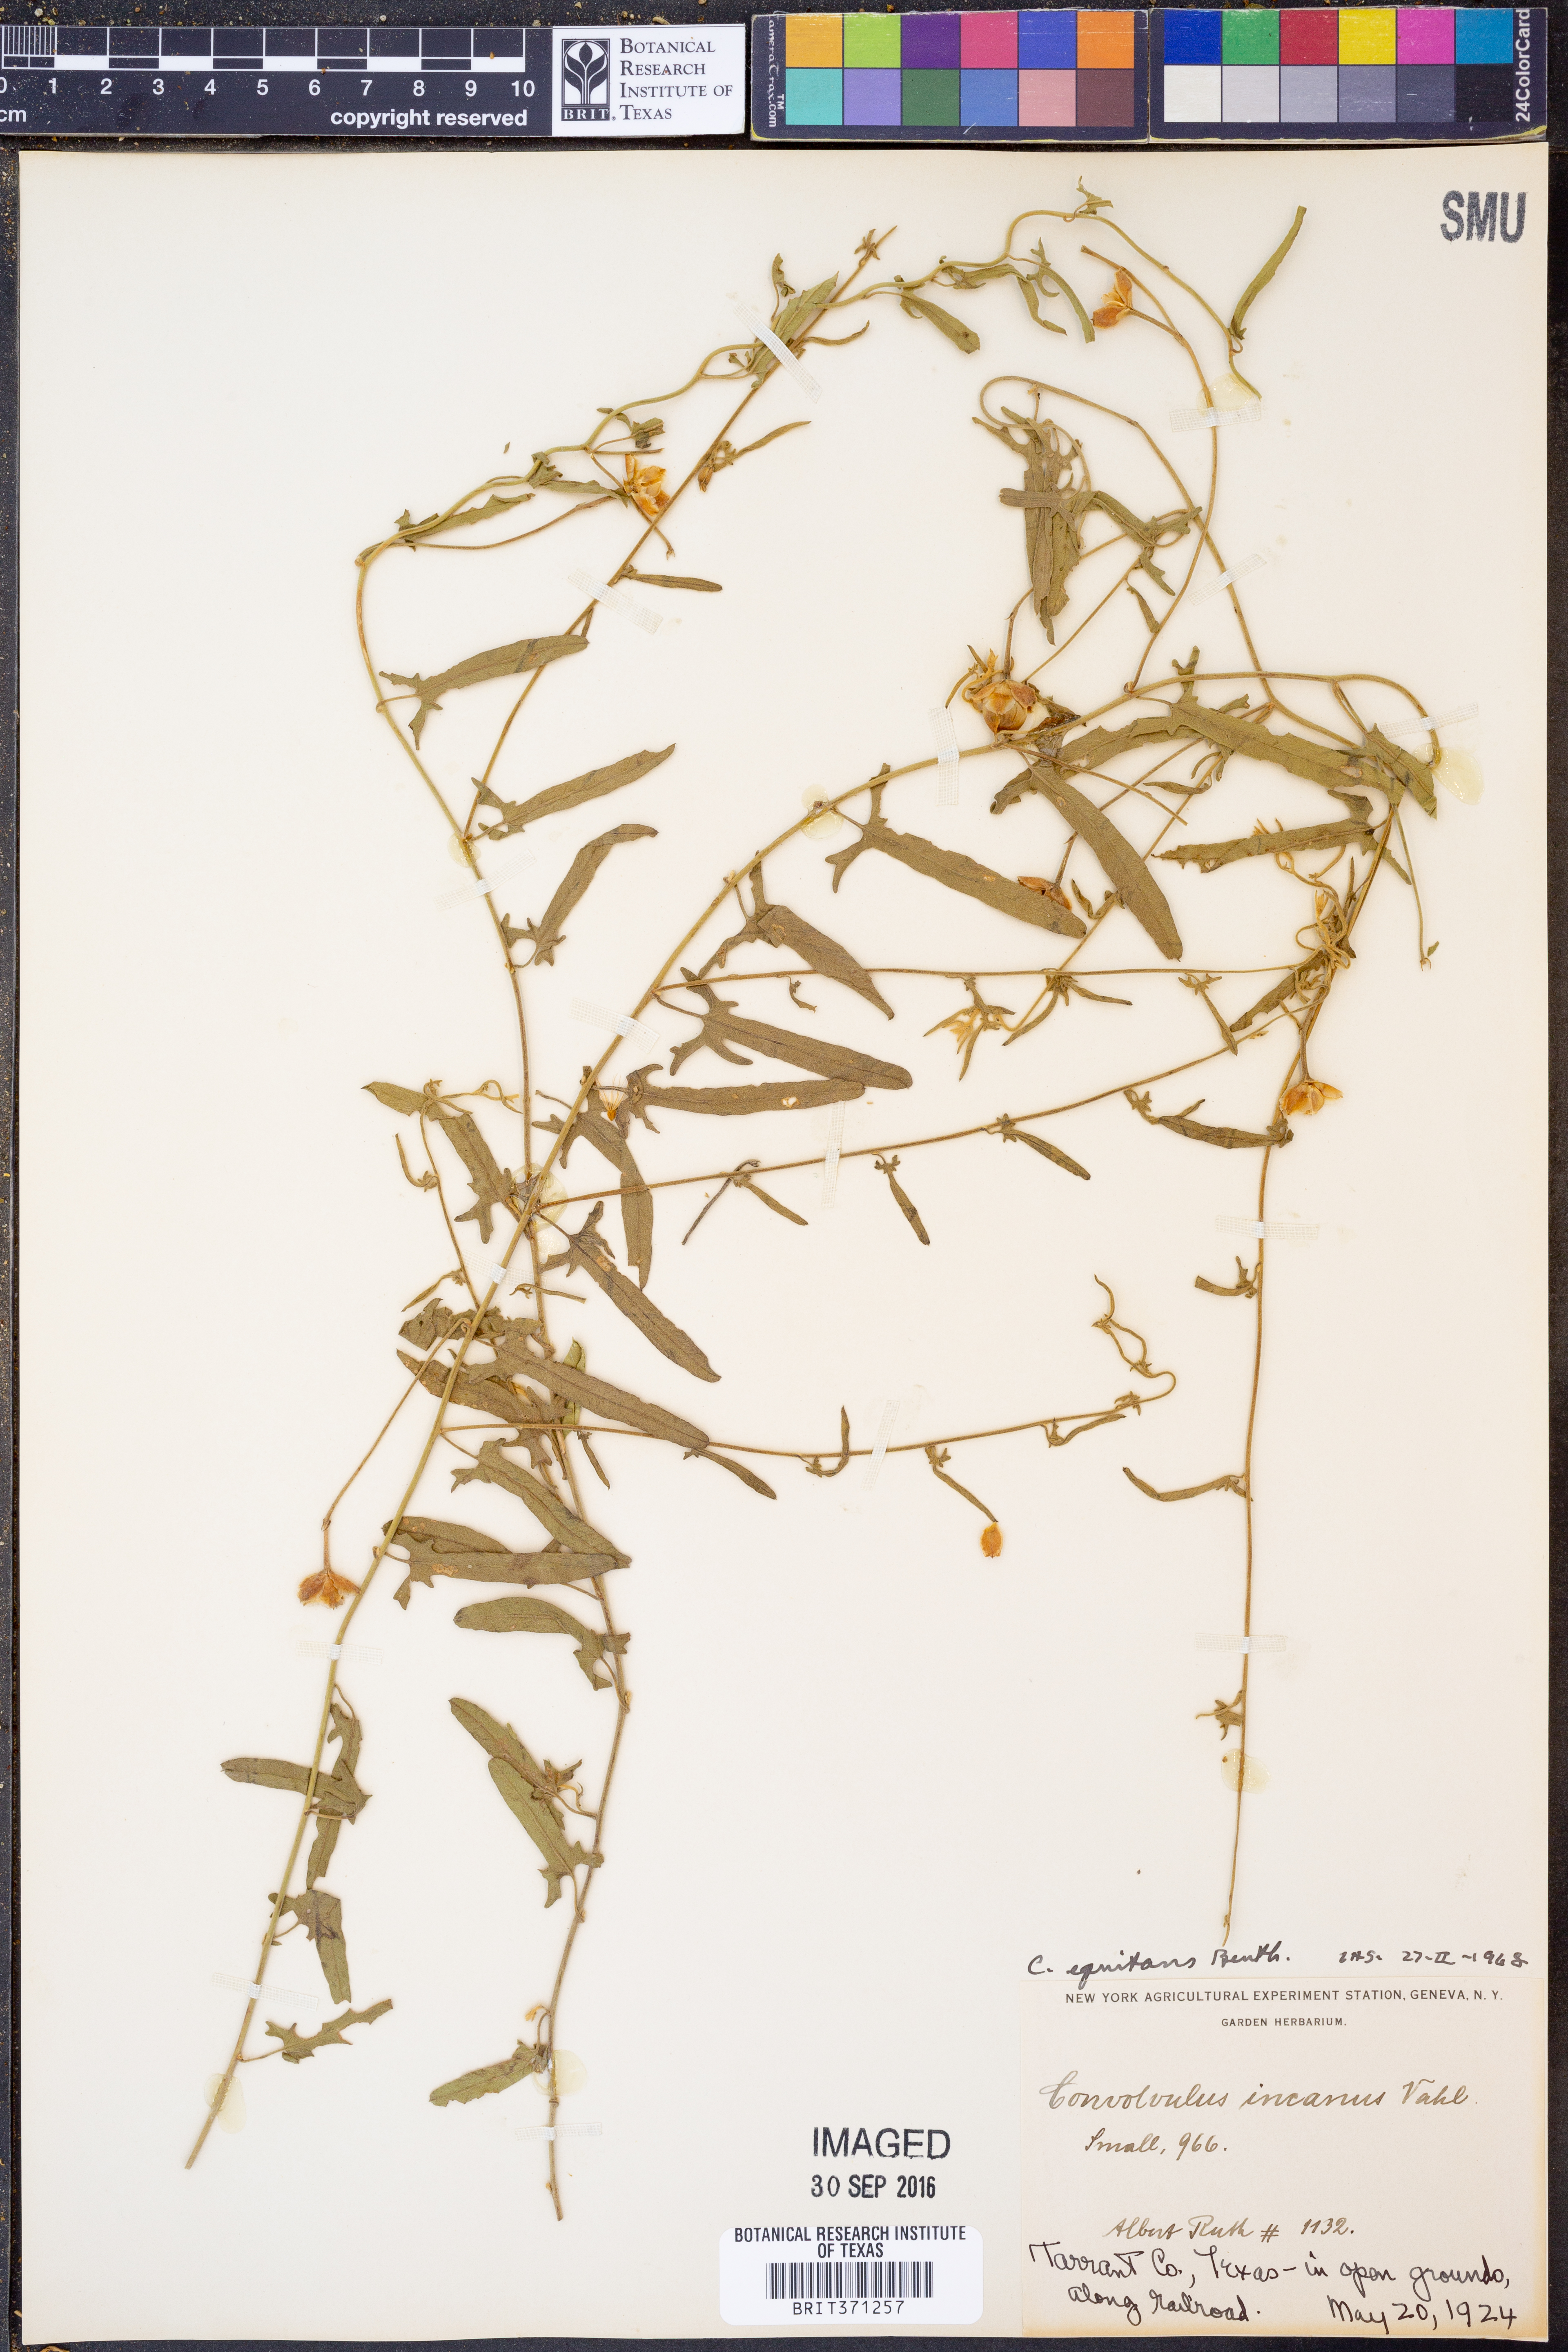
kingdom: Plantae
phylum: Tracheophyta
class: Magnoliopsida
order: Solanales
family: Convolvulaceae
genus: Convolvulus
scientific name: Convolvulus equitans
